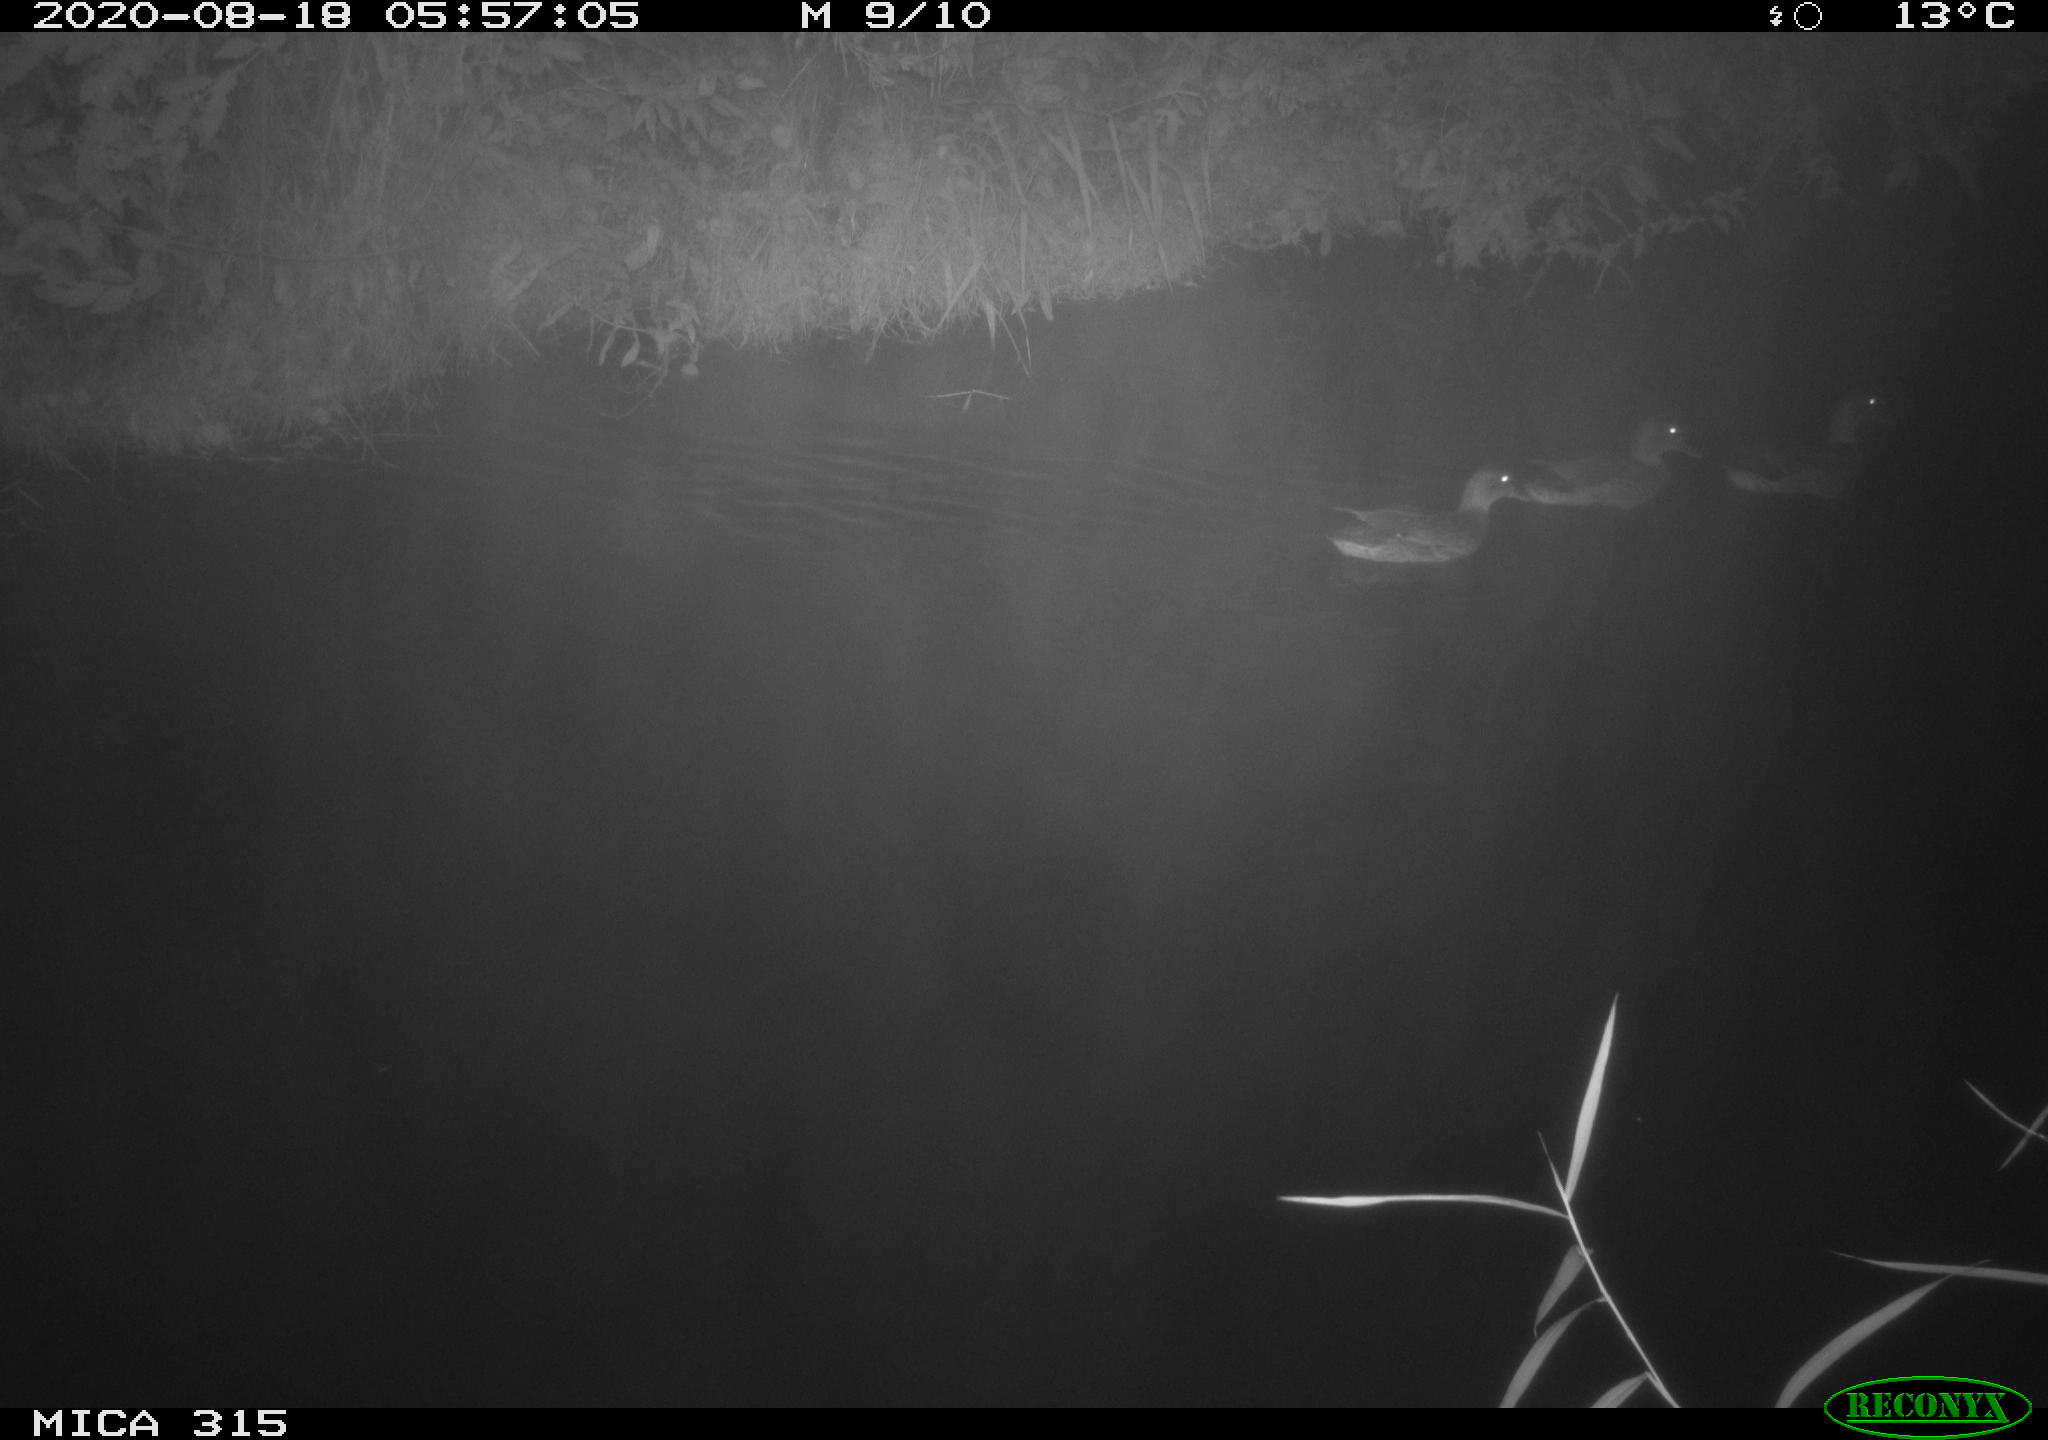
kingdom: Animalia
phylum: Chordata
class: Aves
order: Anseriformes
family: Anatidae
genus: Anas
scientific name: Anas platyrhynchos
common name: Mallard
